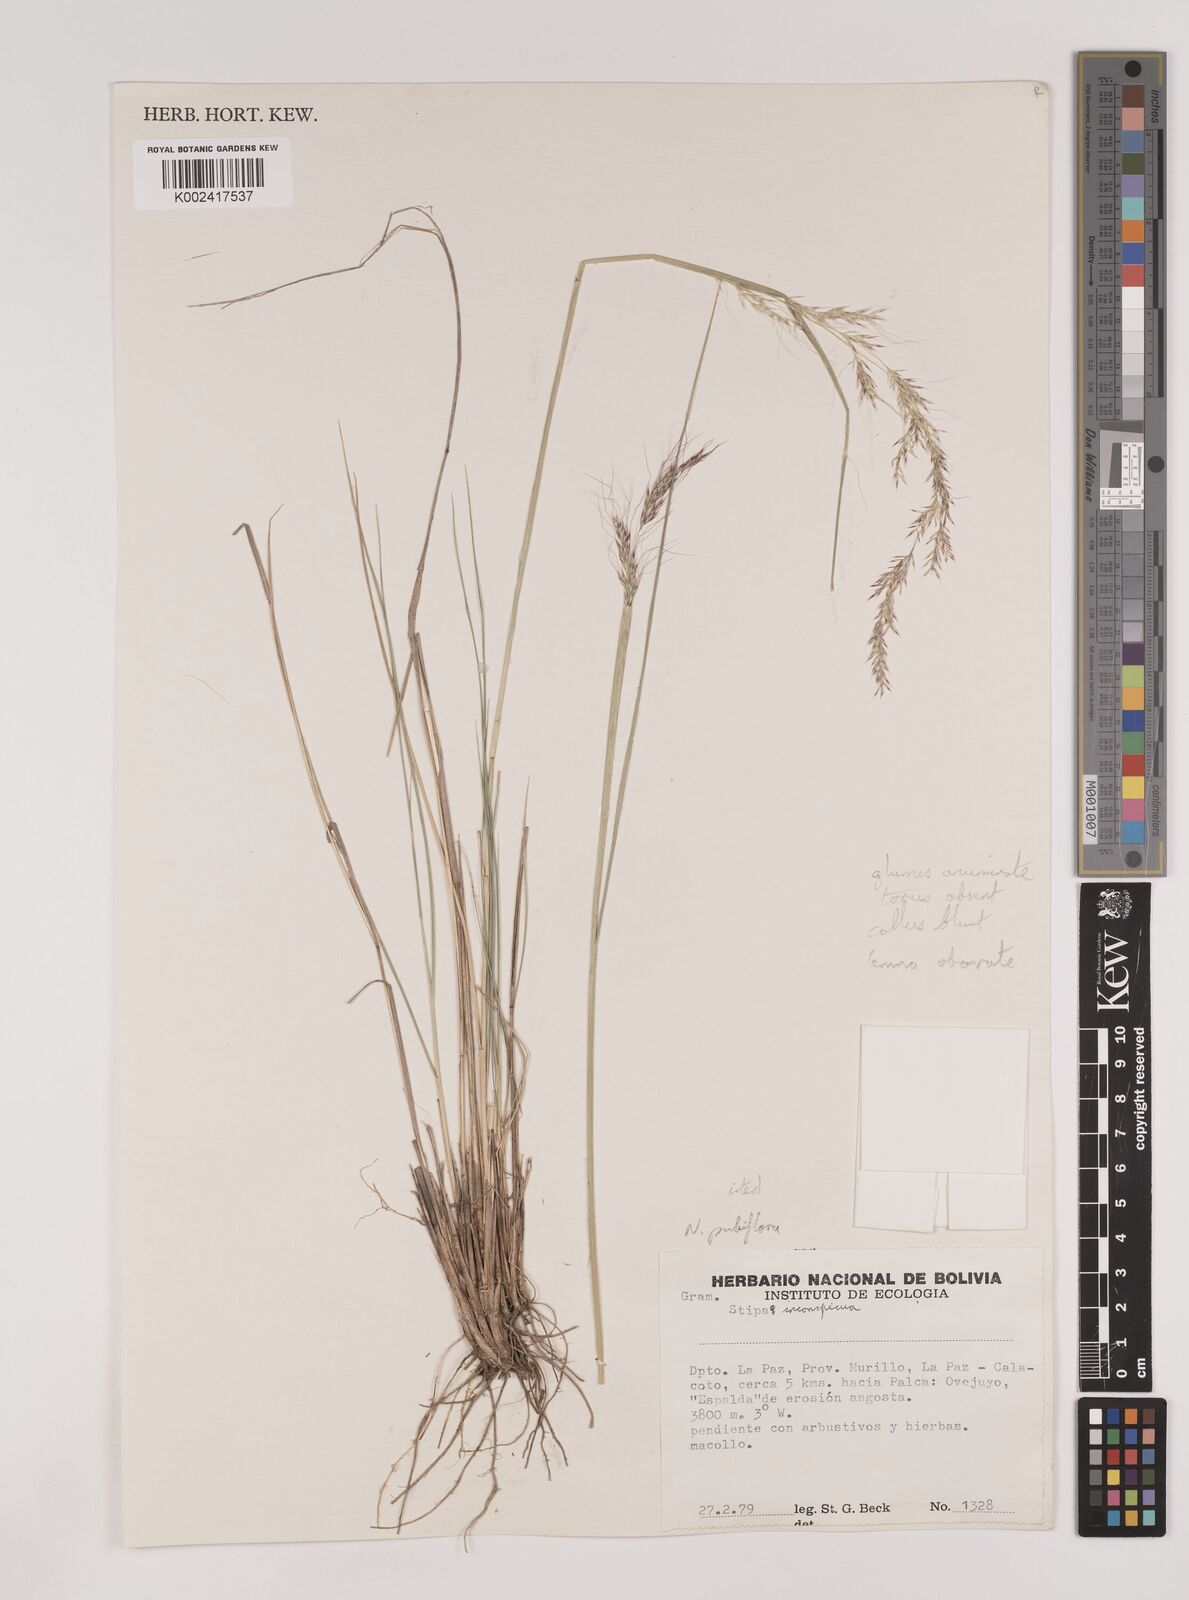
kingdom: Plantae
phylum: Tracheophyta
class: Liliopsida
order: Poales
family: Poaceae
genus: Nassella
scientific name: Nassella pubiflora
